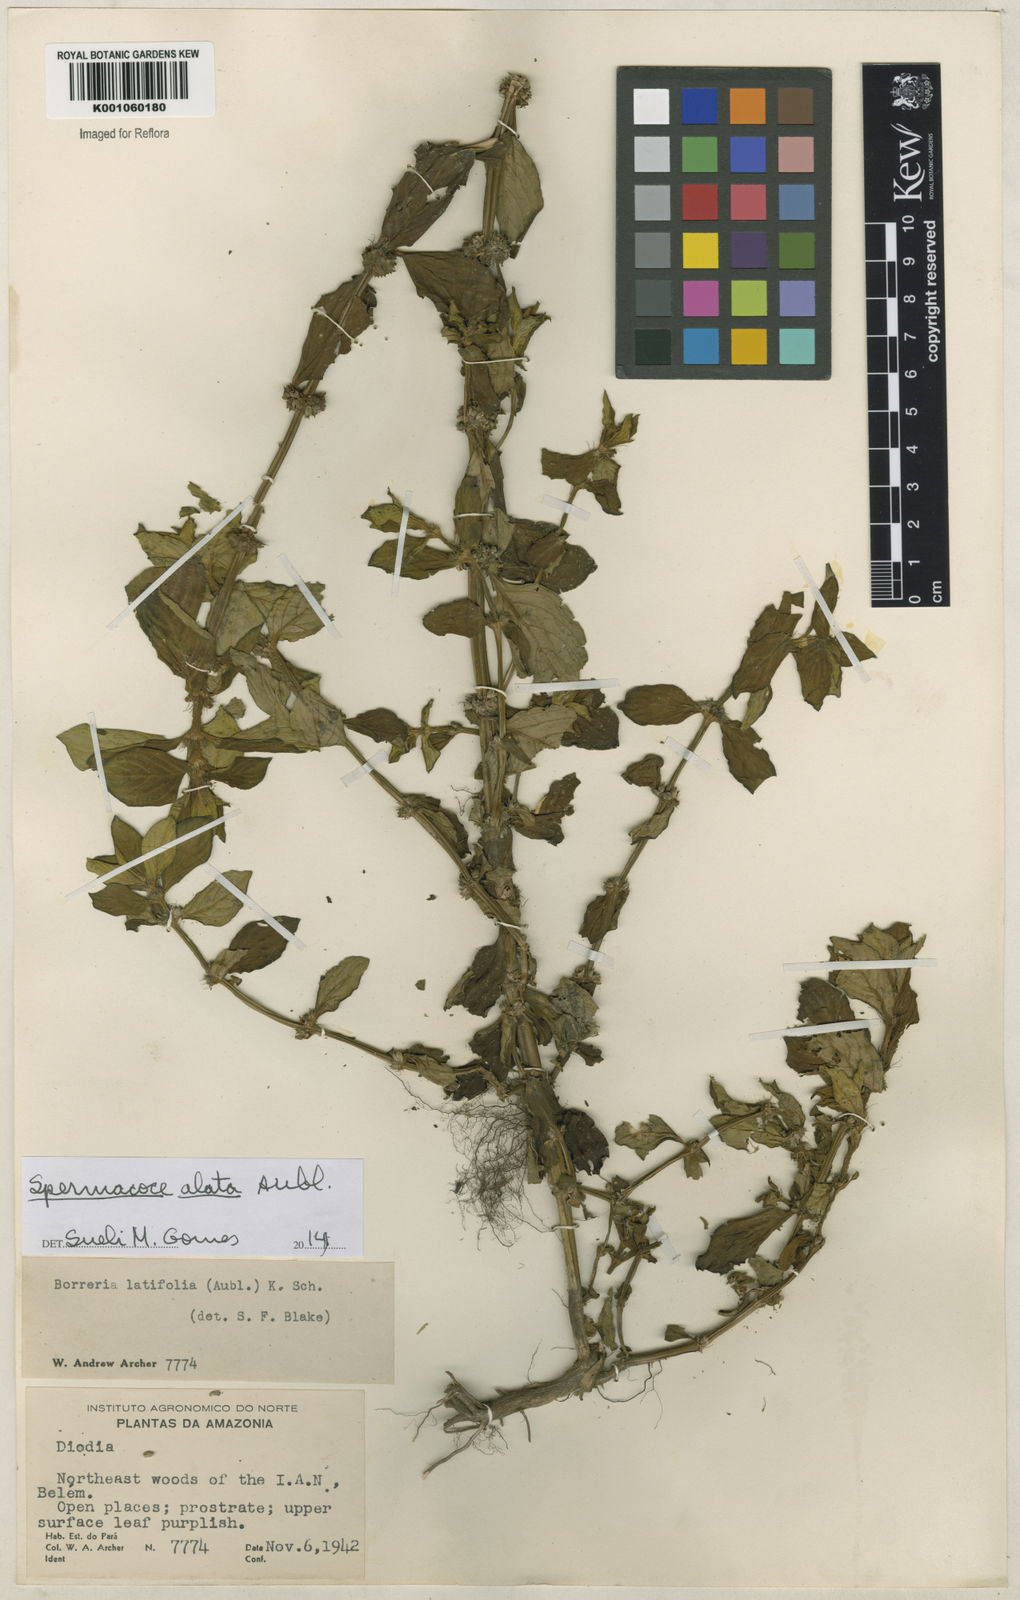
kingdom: Plantae
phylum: Tracheophyta
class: Magnoliopsida
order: Gentianales
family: Rubiaceae
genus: Spermacoce
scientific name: Spermacoce
